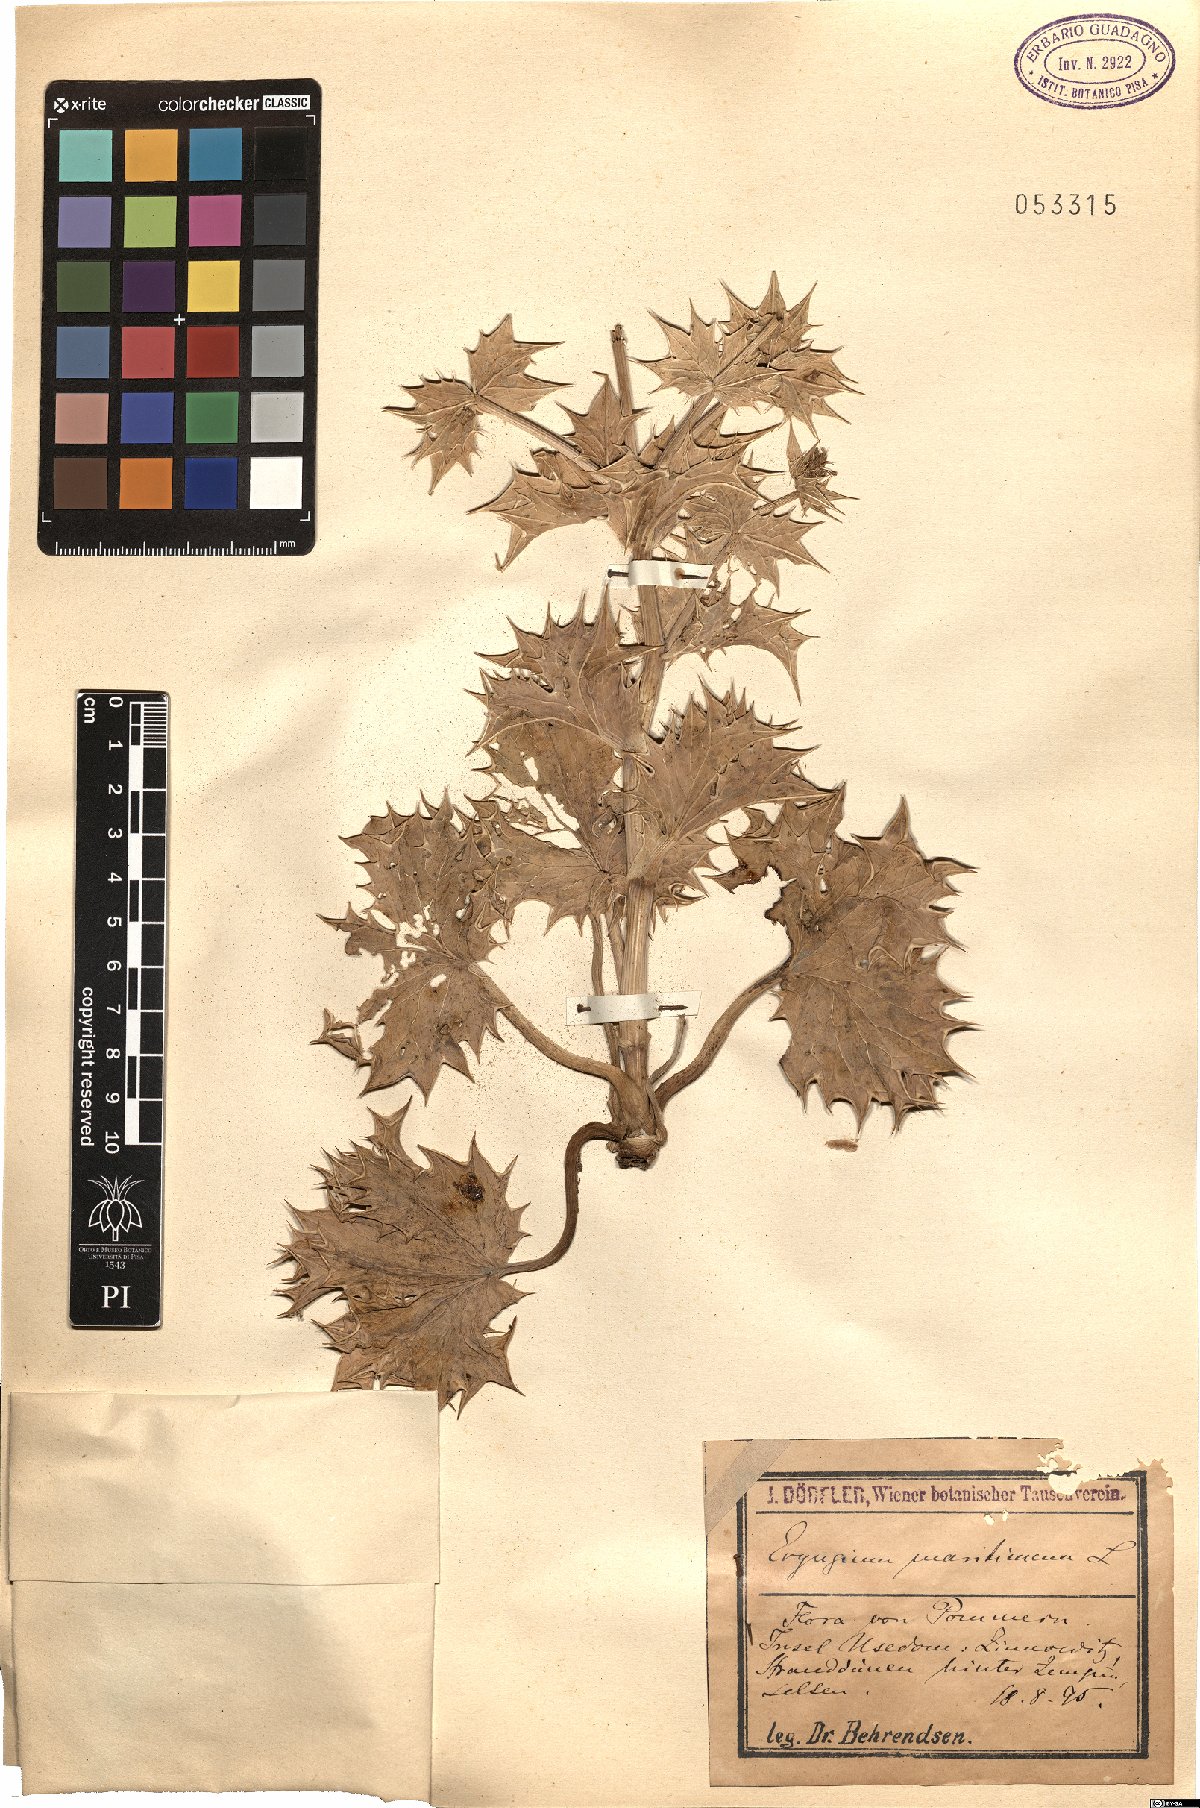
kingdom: Plantae
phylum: Tracheophyta
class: Magnoliopsida
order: Apiales
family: Apiaceae
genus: Eryngium
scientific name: Eryngium maritimum
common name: Sea-holly
